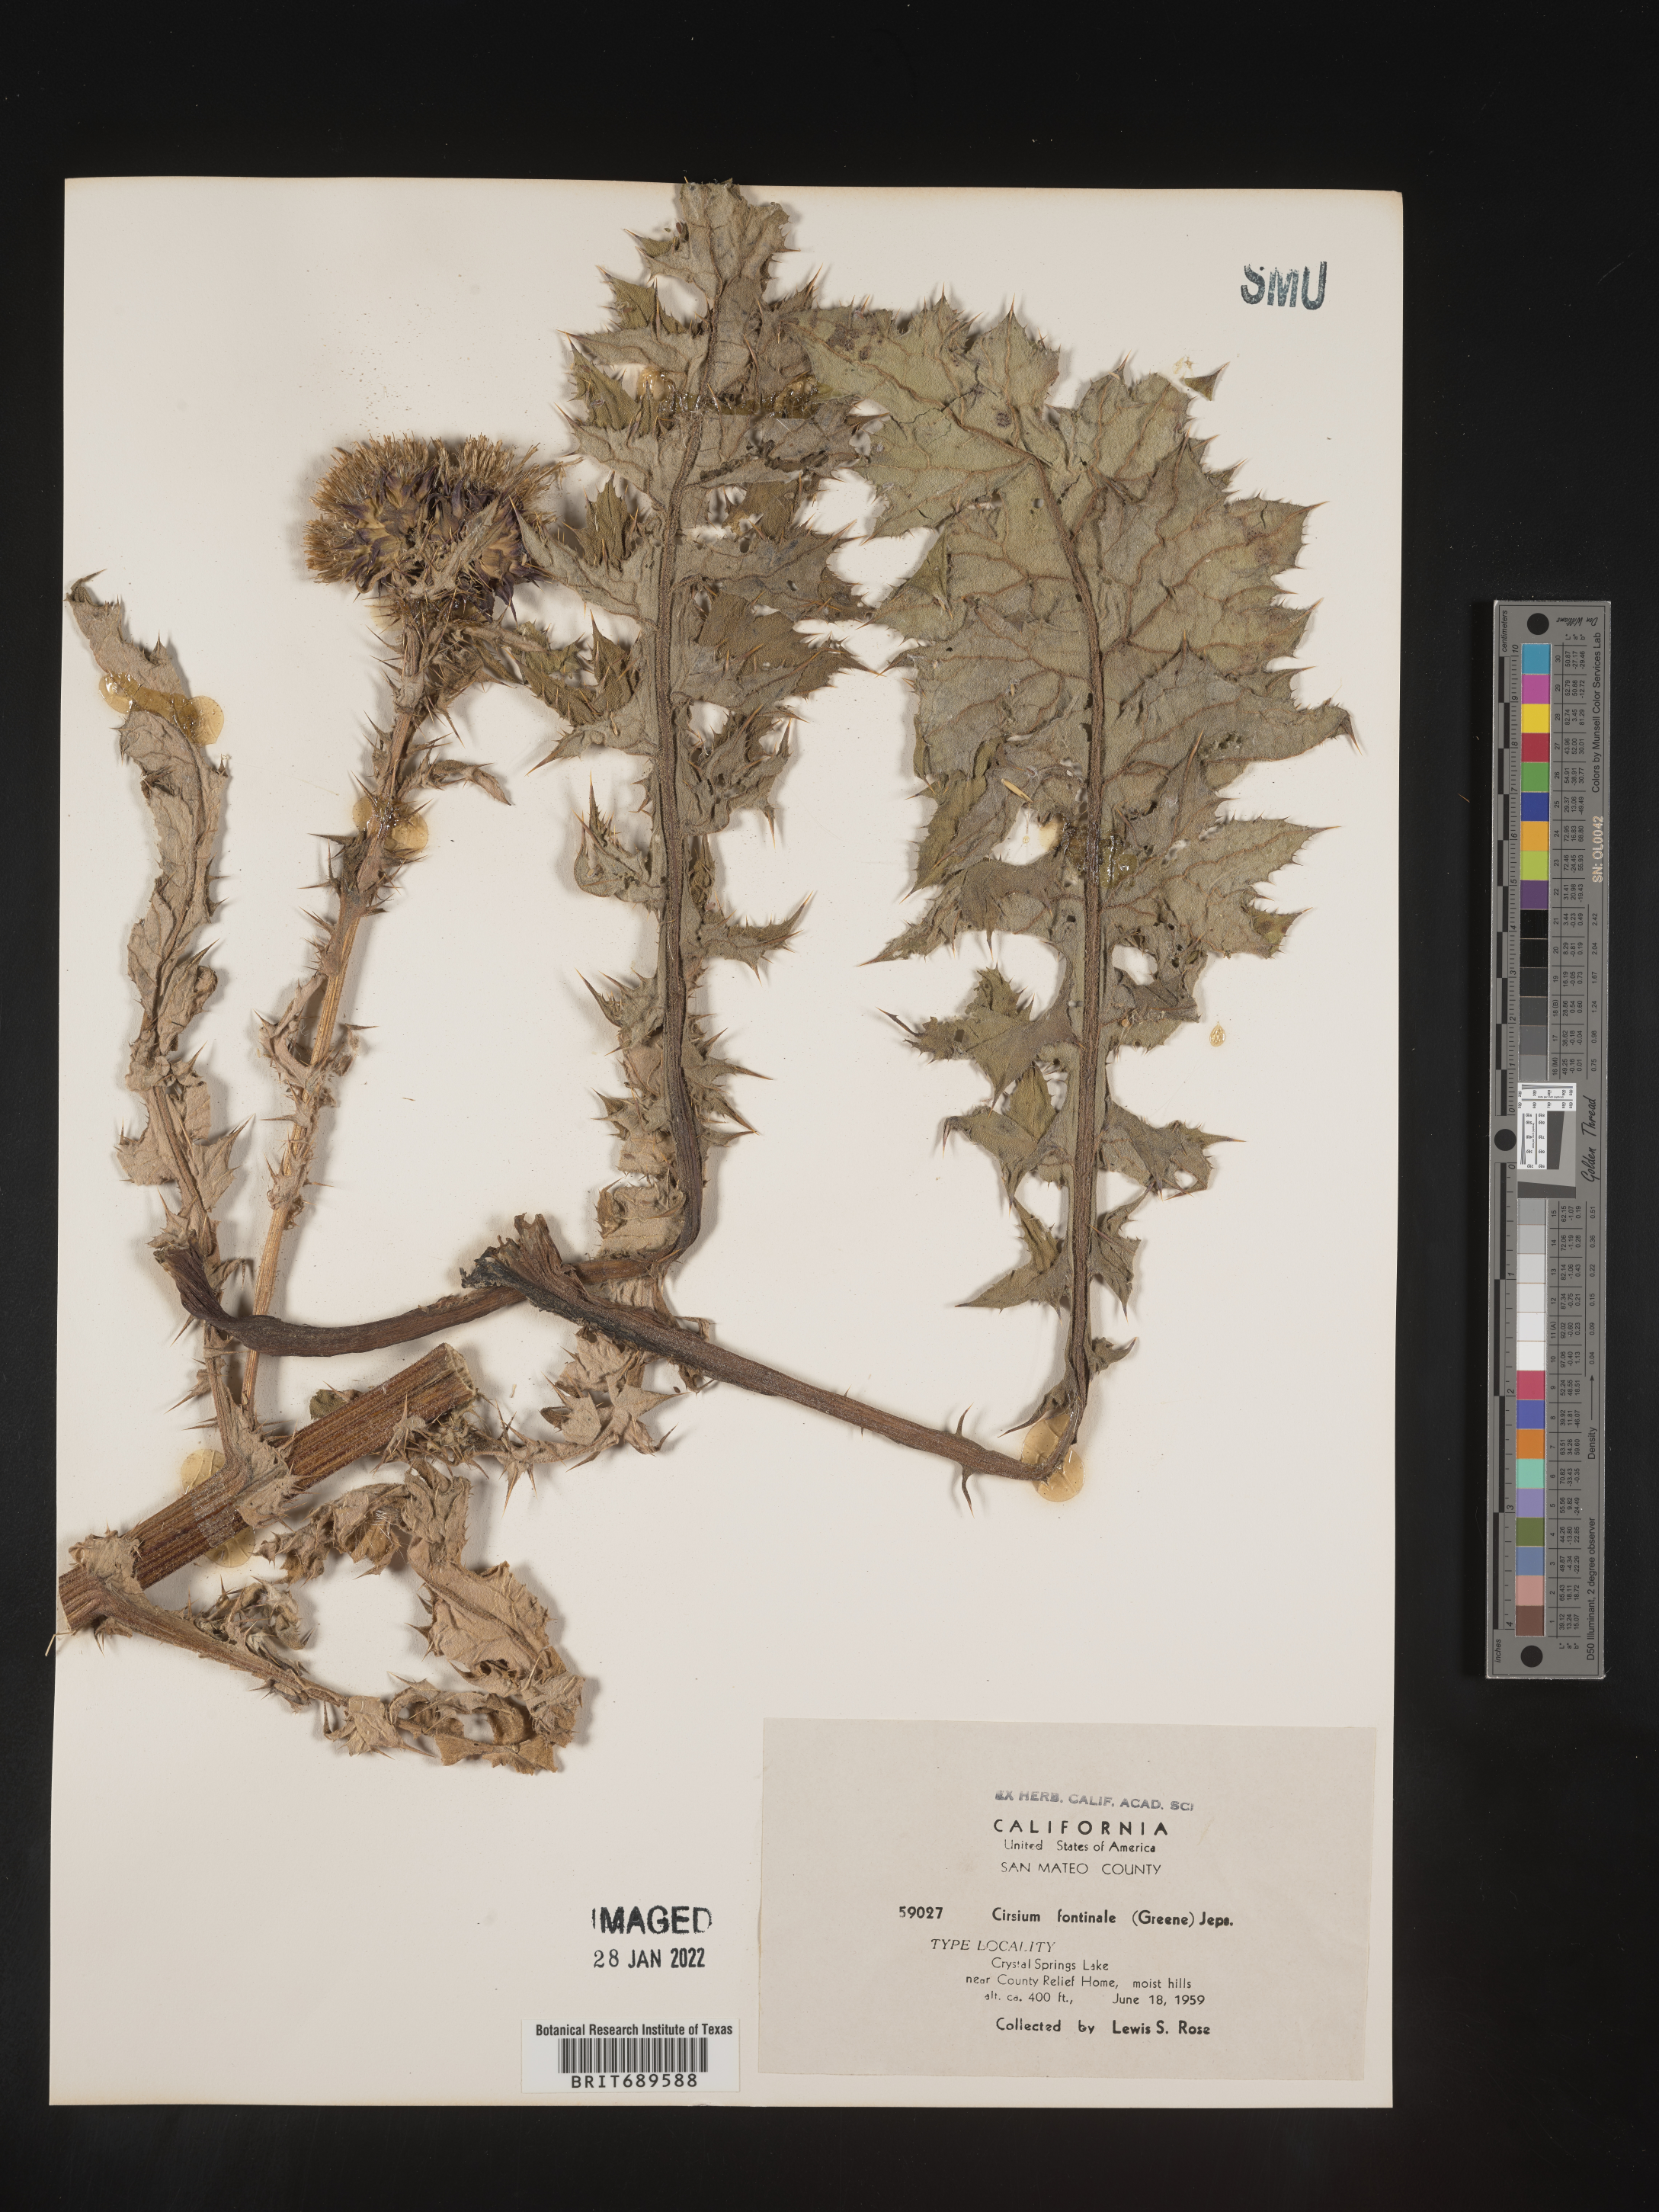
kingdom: Plantae
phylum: Tracheophyta
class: Magnoliopsida
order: Asterales
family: Asteraceae
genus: Cirsium
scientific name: Cirsium fontinale
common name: Fountain thistle
